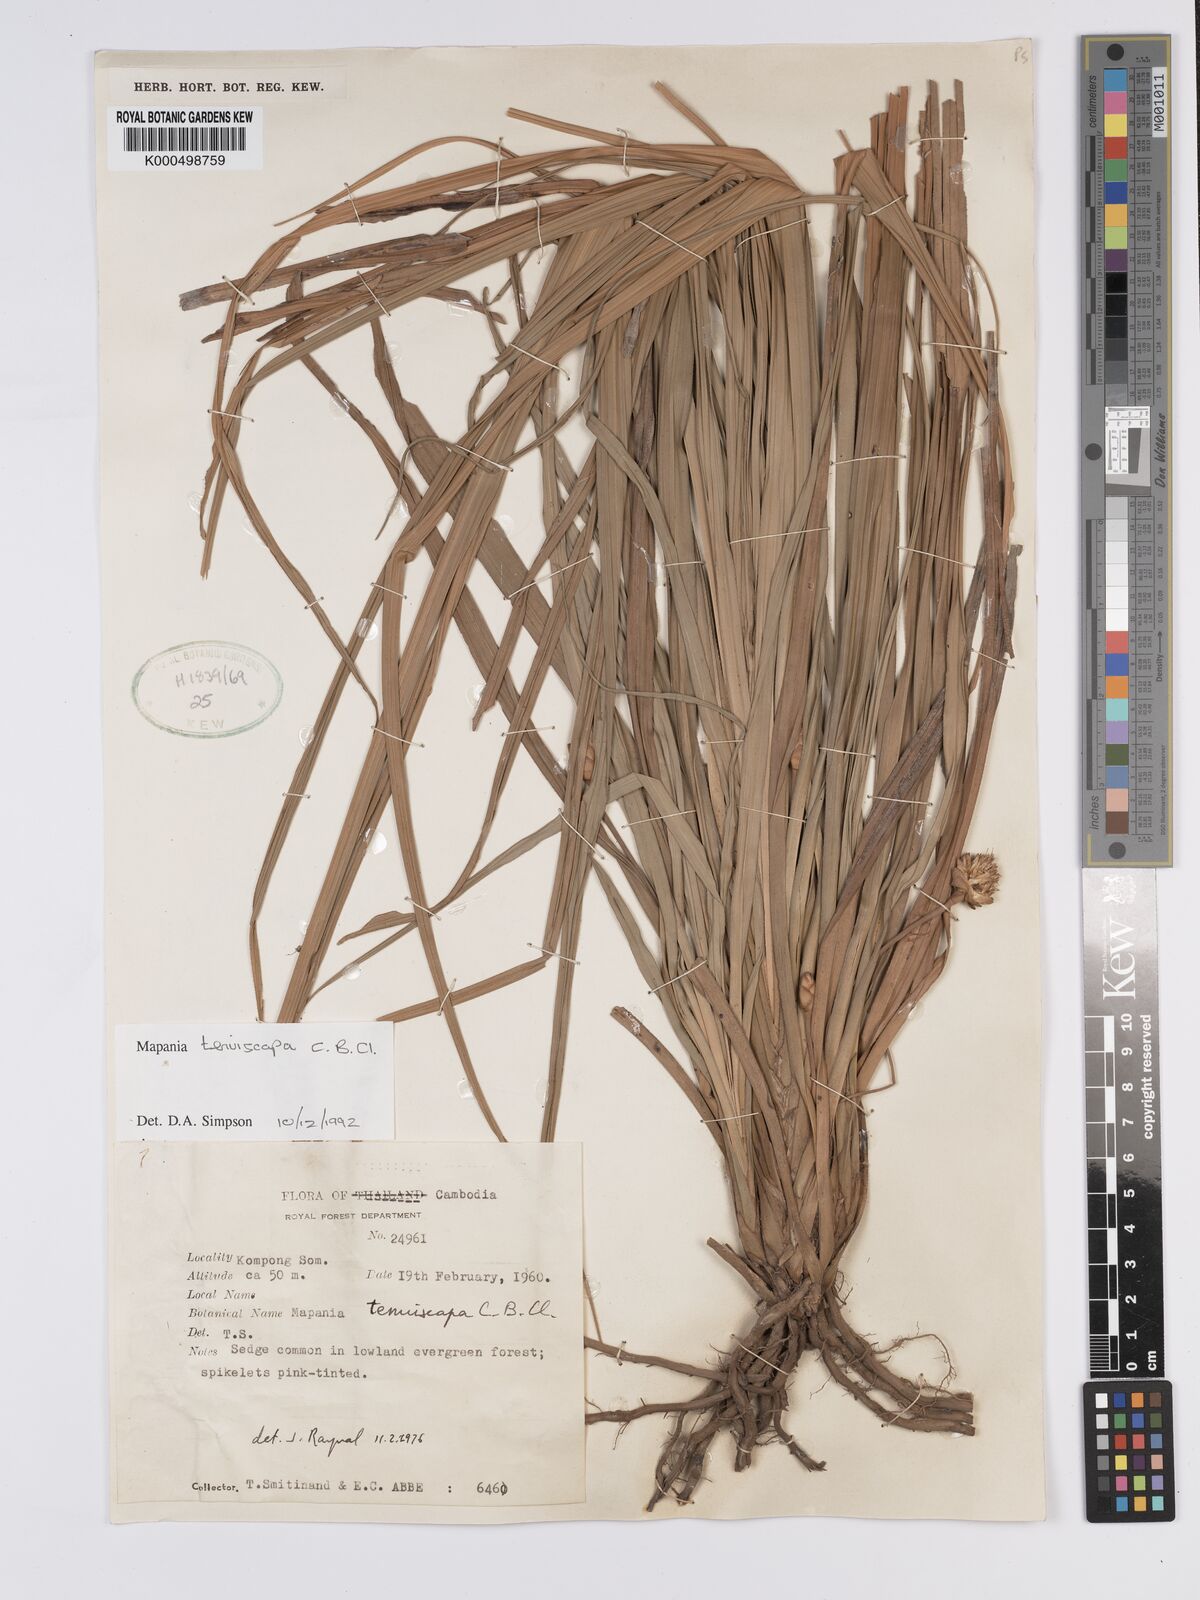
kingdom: Plantae
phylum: Tracheophyta
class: Liliopsida
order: Poales
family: Cyperaceae
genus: Mapania
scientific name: Mapania tenuiscapa
